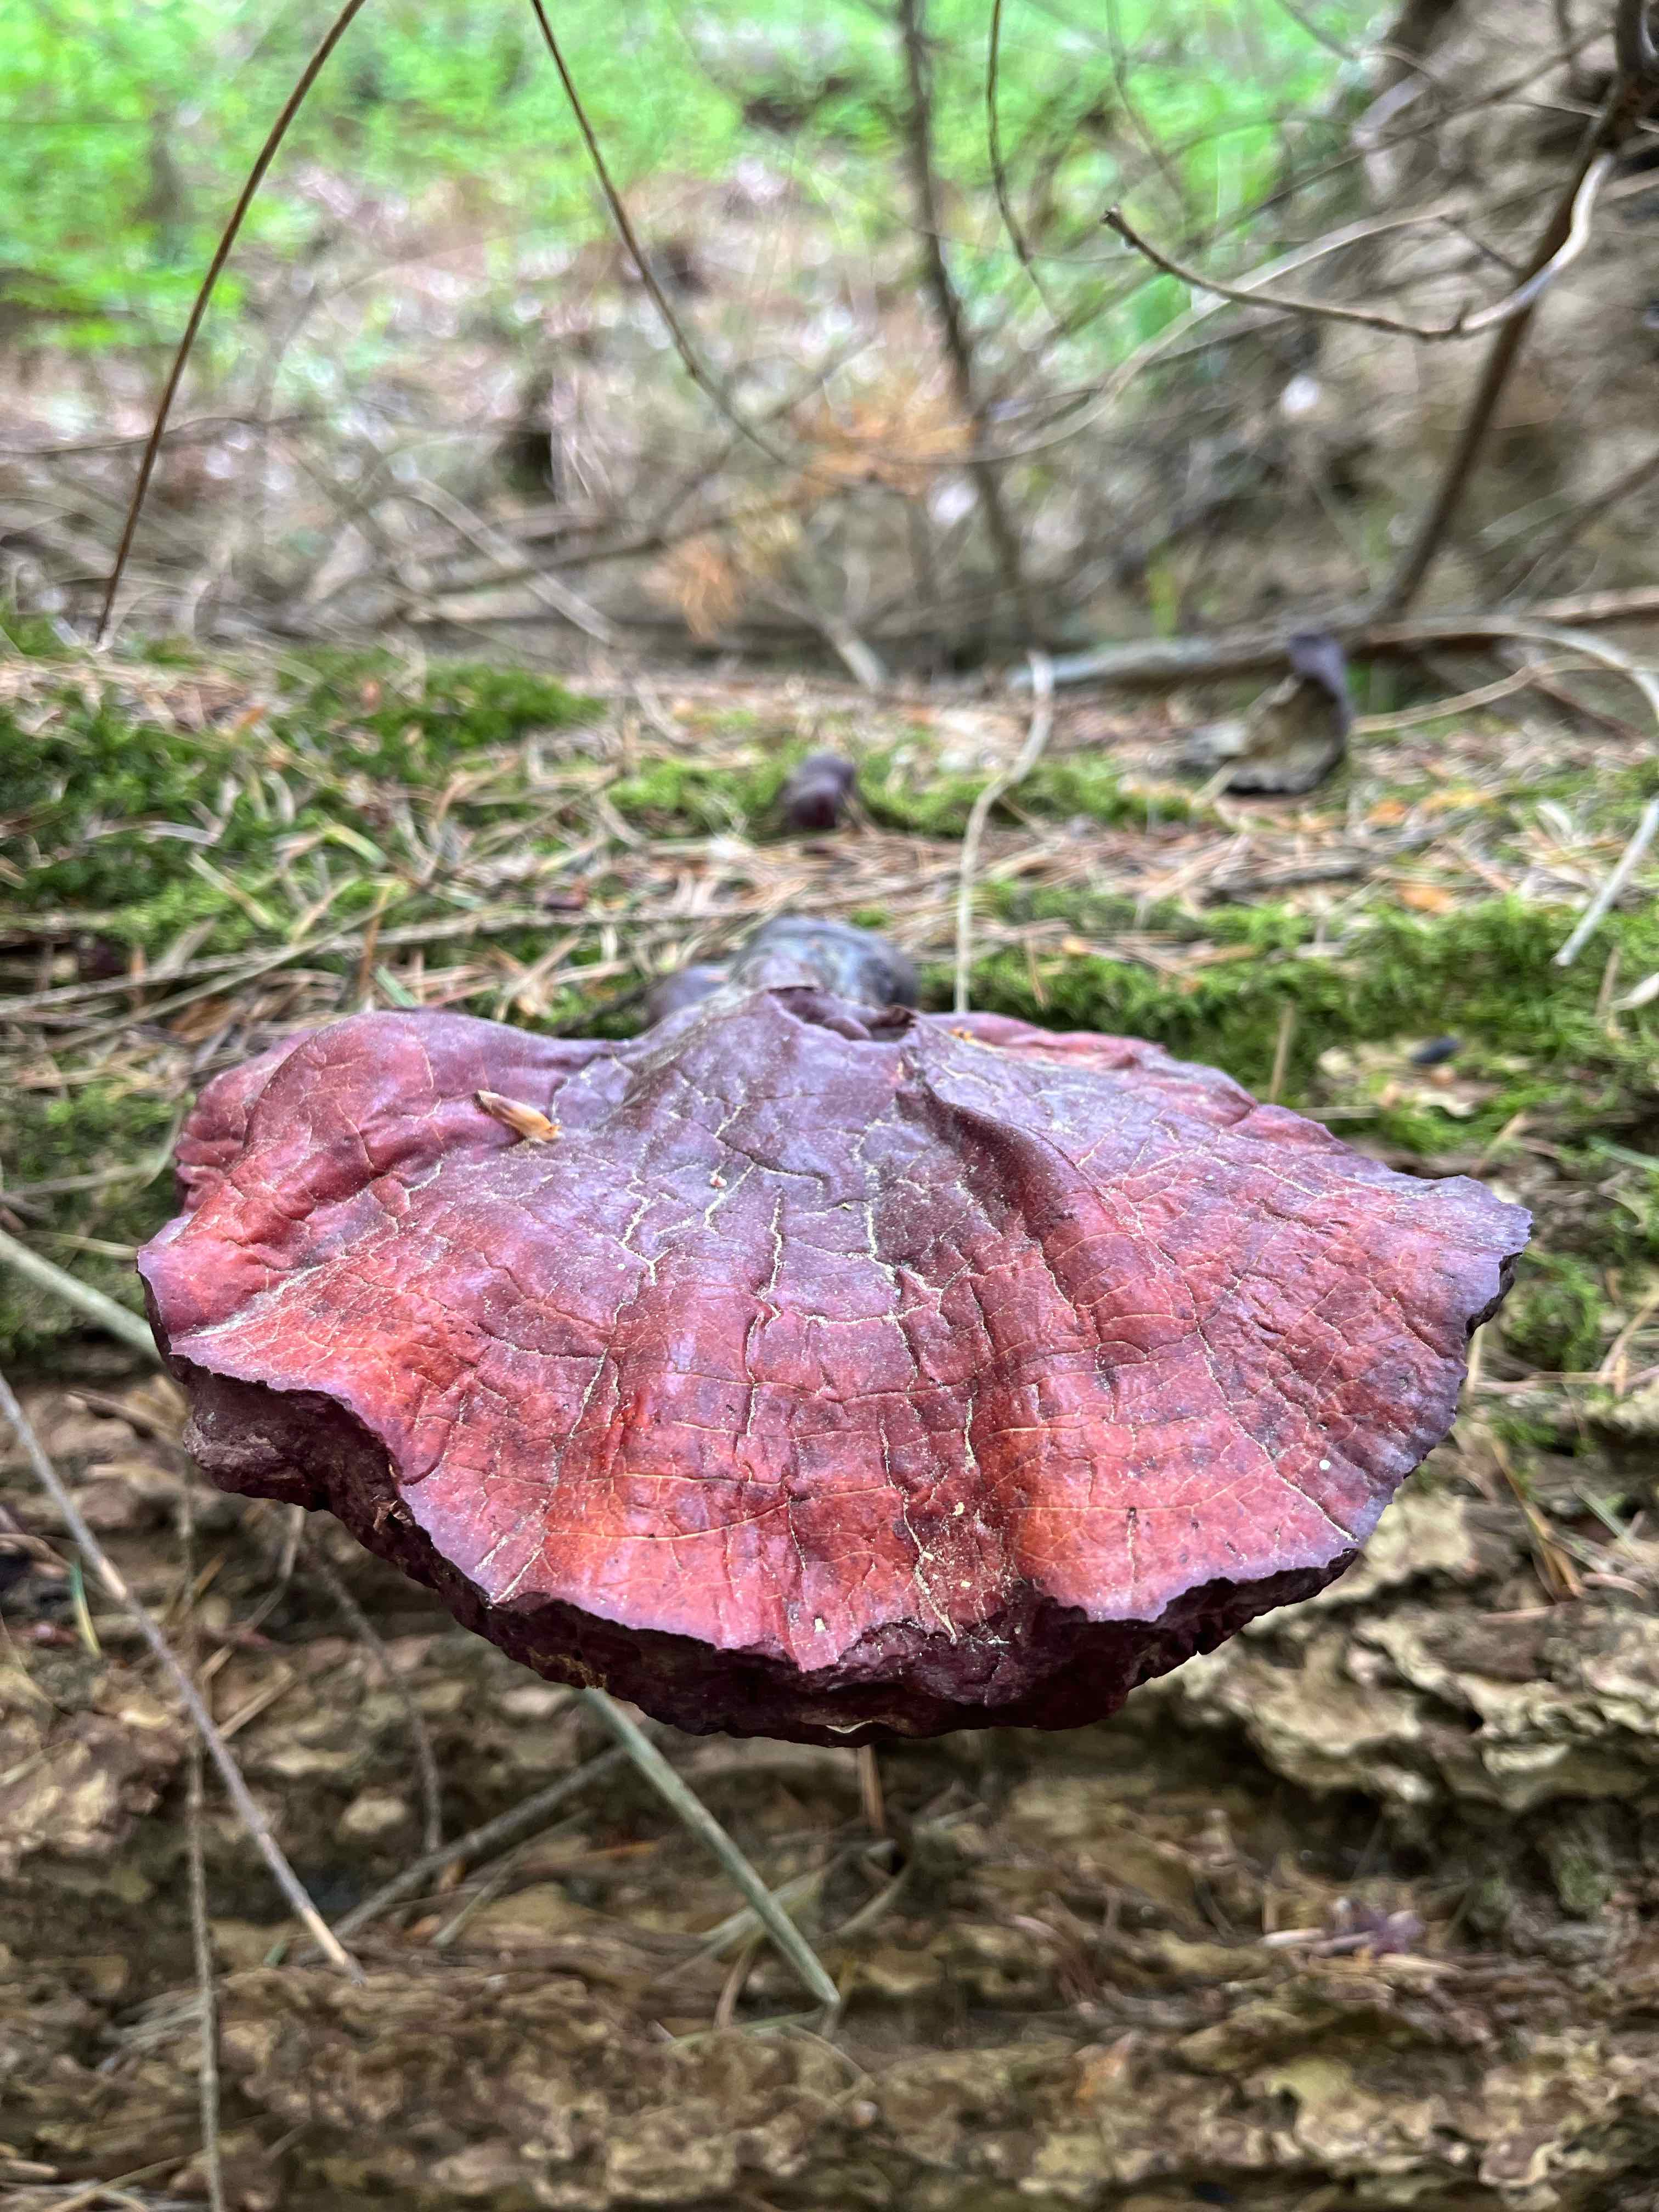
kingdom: Fungi
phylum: Basidiomycota
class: Agaricomycetes
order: Polyporales
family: Polyporaceae
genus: Ganoderma
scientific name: Ganoderma lucidum
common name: skinnende lakporesvamp
